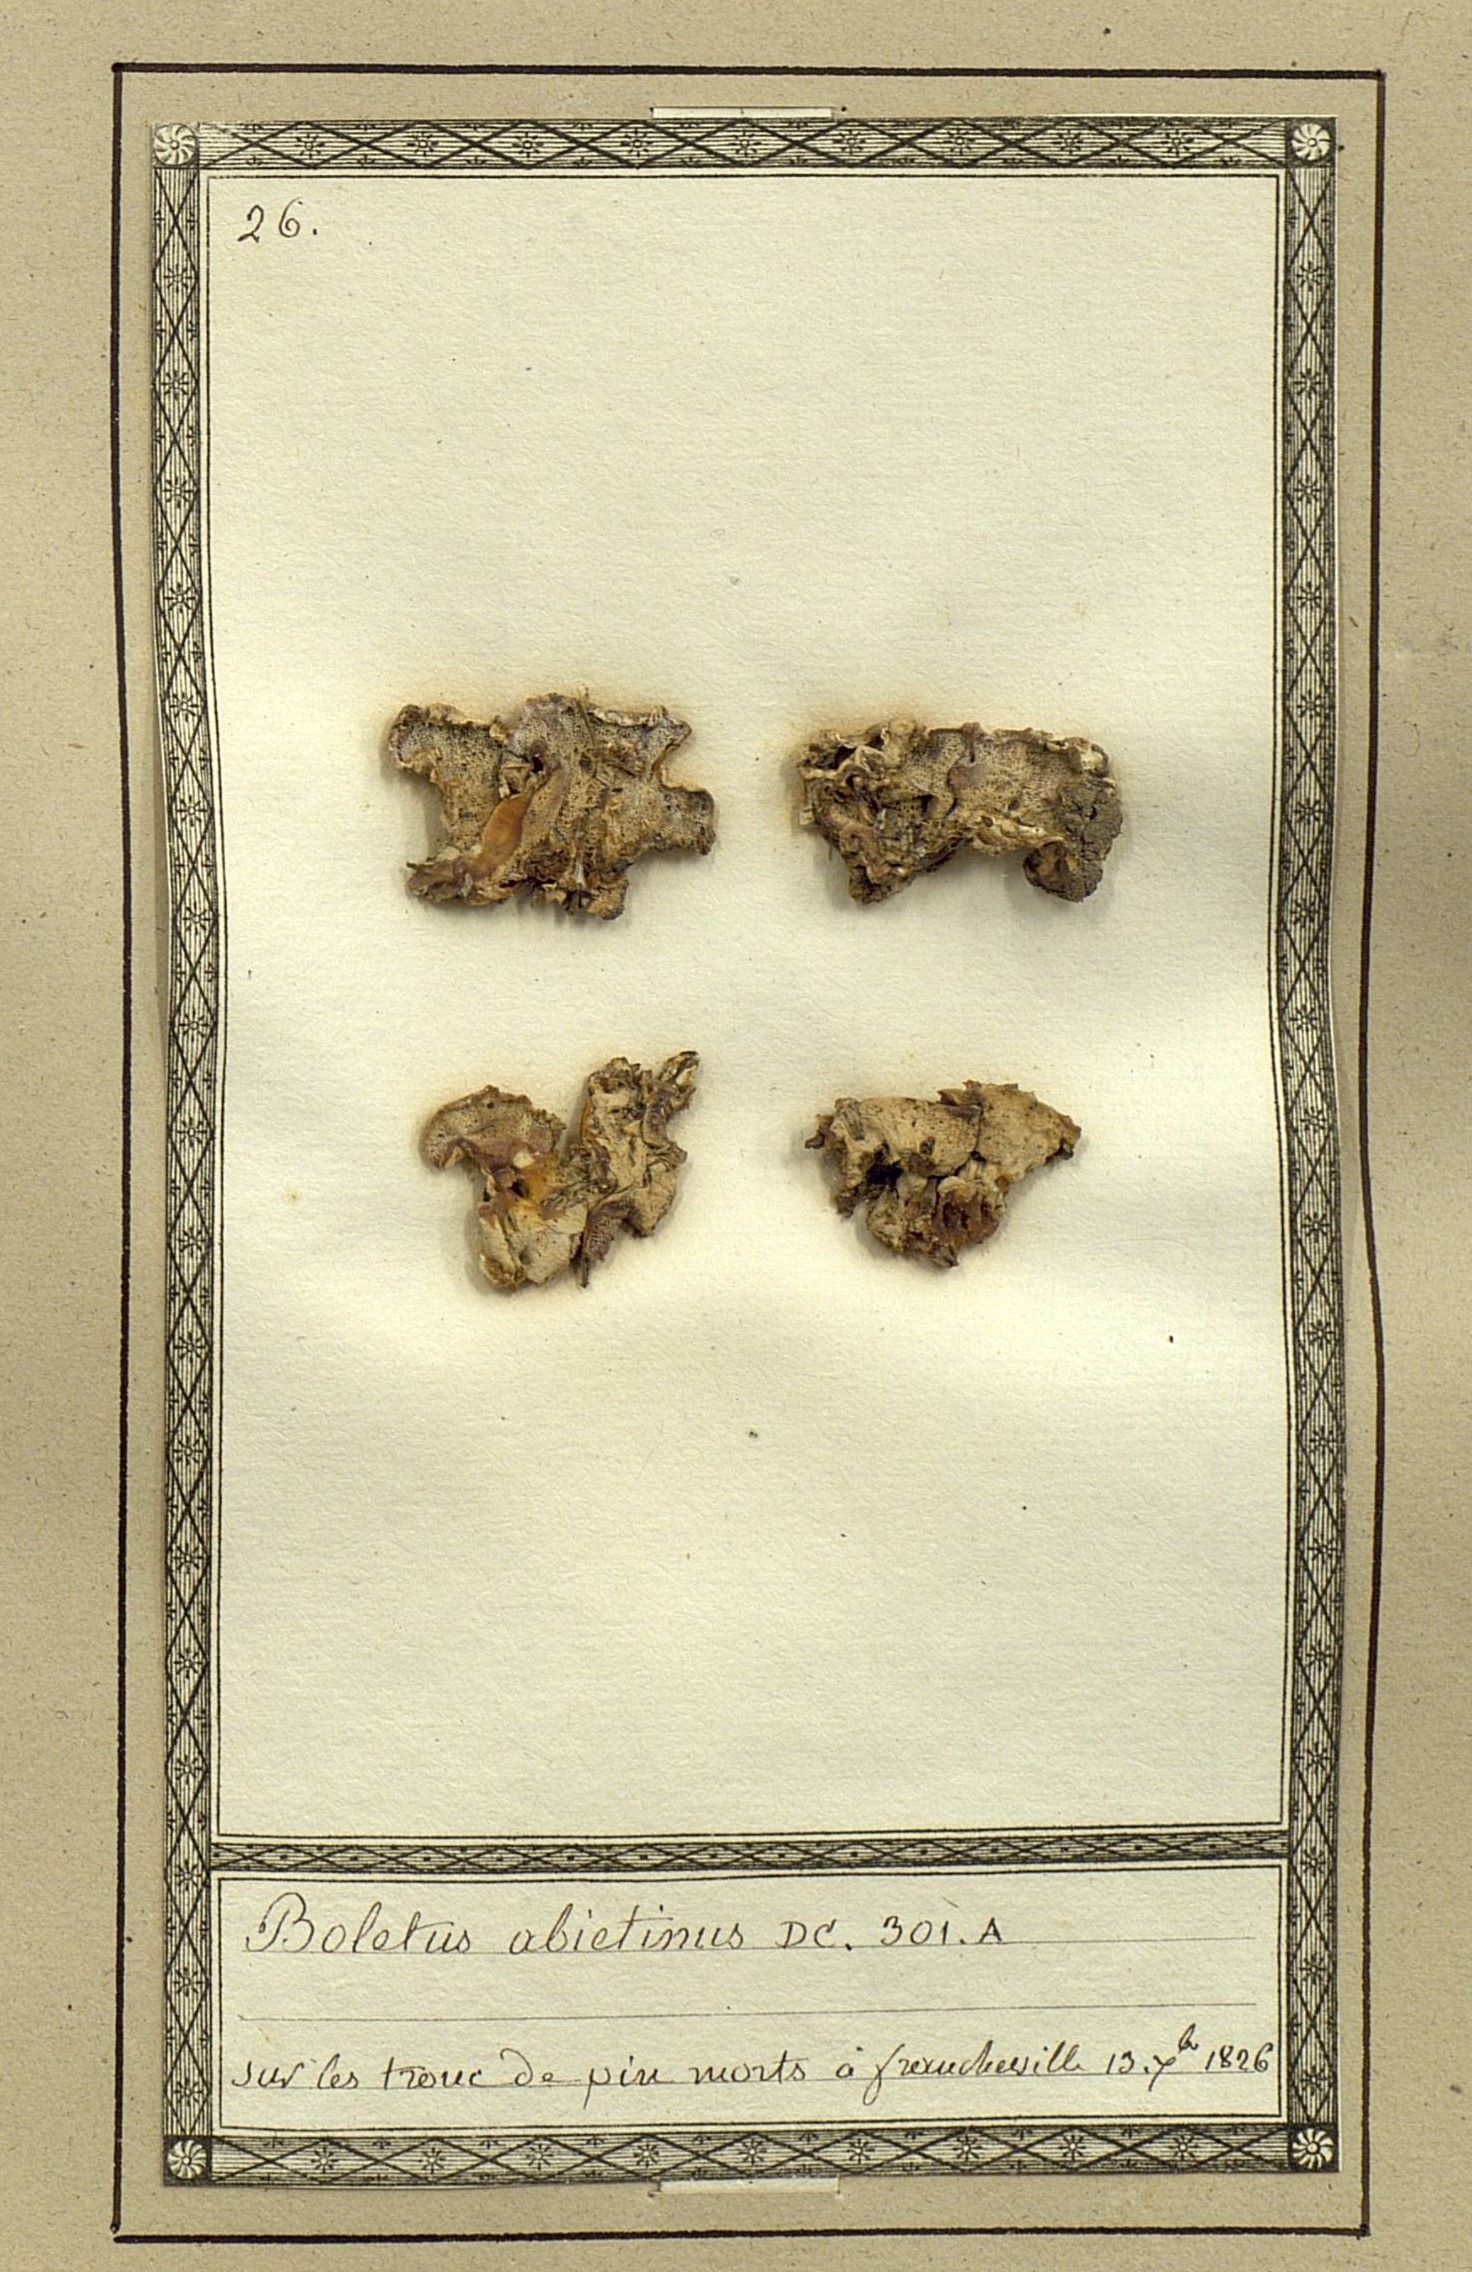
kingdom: Fungi
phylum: Basidiomycota
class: Agaricomycetes
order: Hymenochaetales
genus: Trichaptum
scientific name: Trichaptum abietinum
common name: Purplepore bracket
